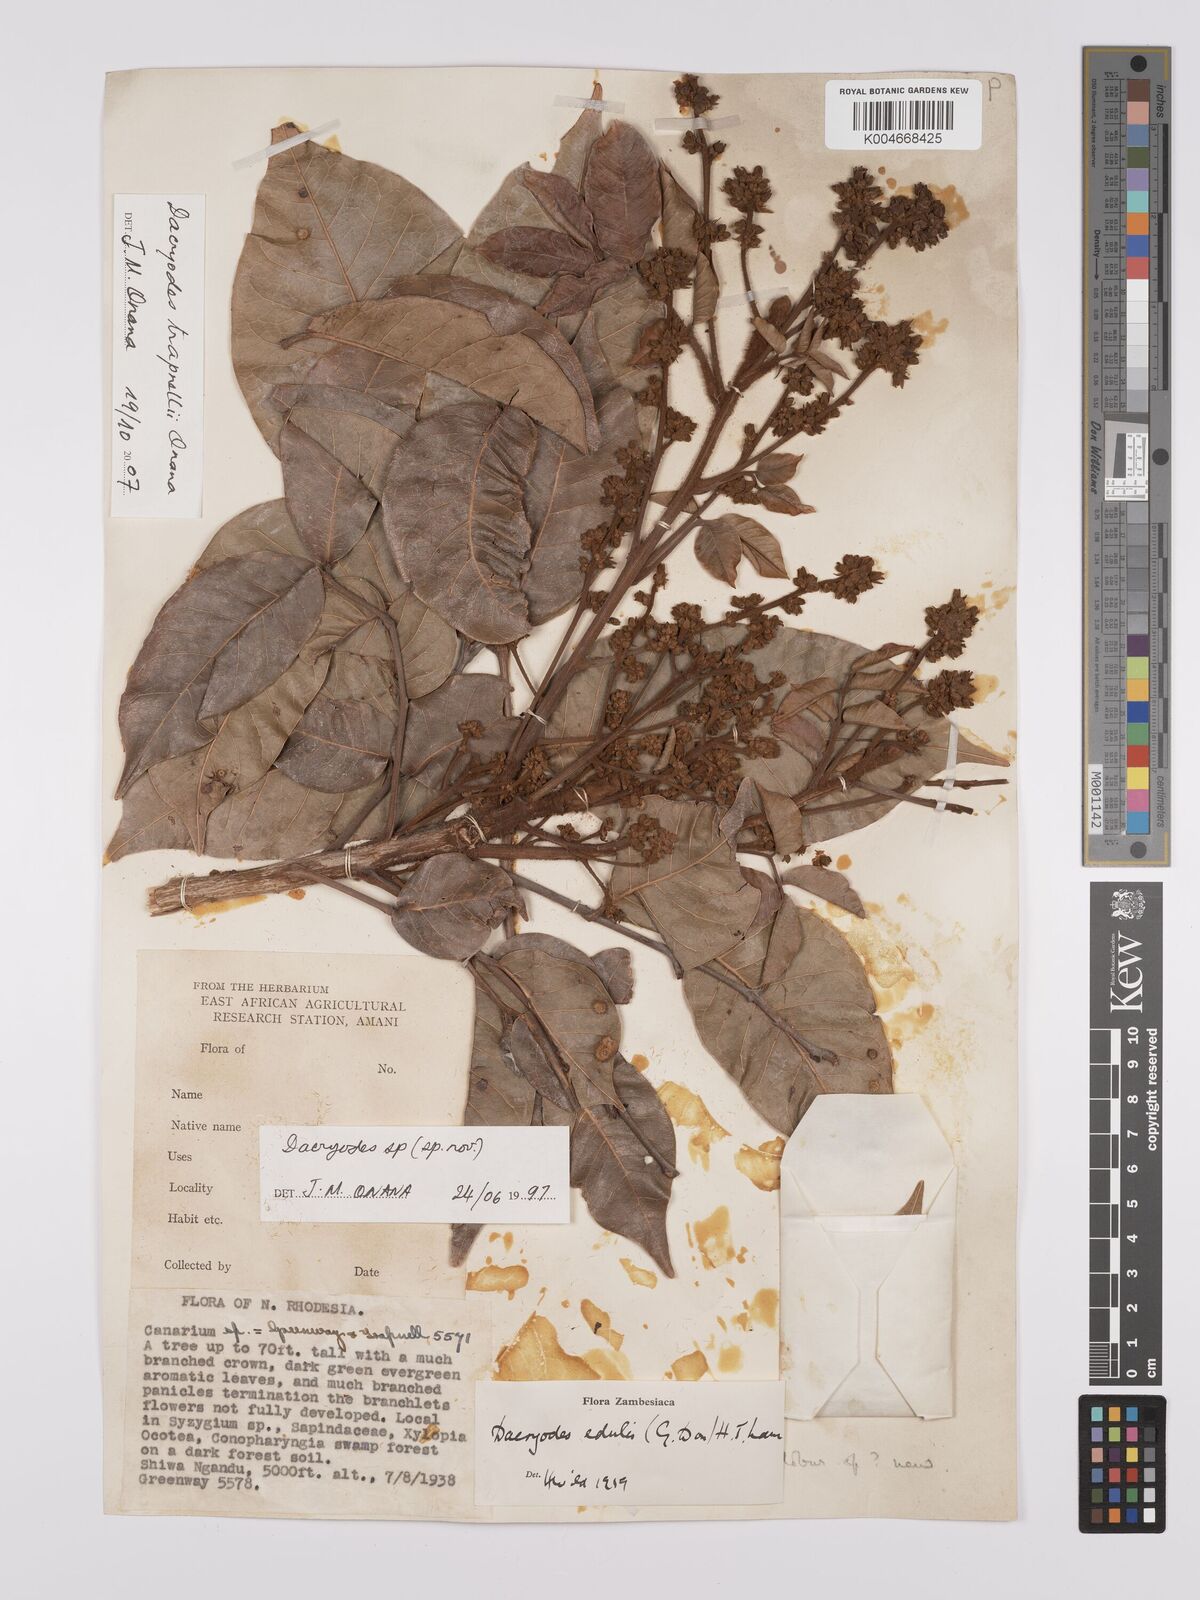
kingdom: Plantae
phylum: Tracheophyta
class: Magnoliopsida
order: Sapindales
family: Burseraceae
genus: Pachylobus
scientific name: Pachylobus trapnellii
